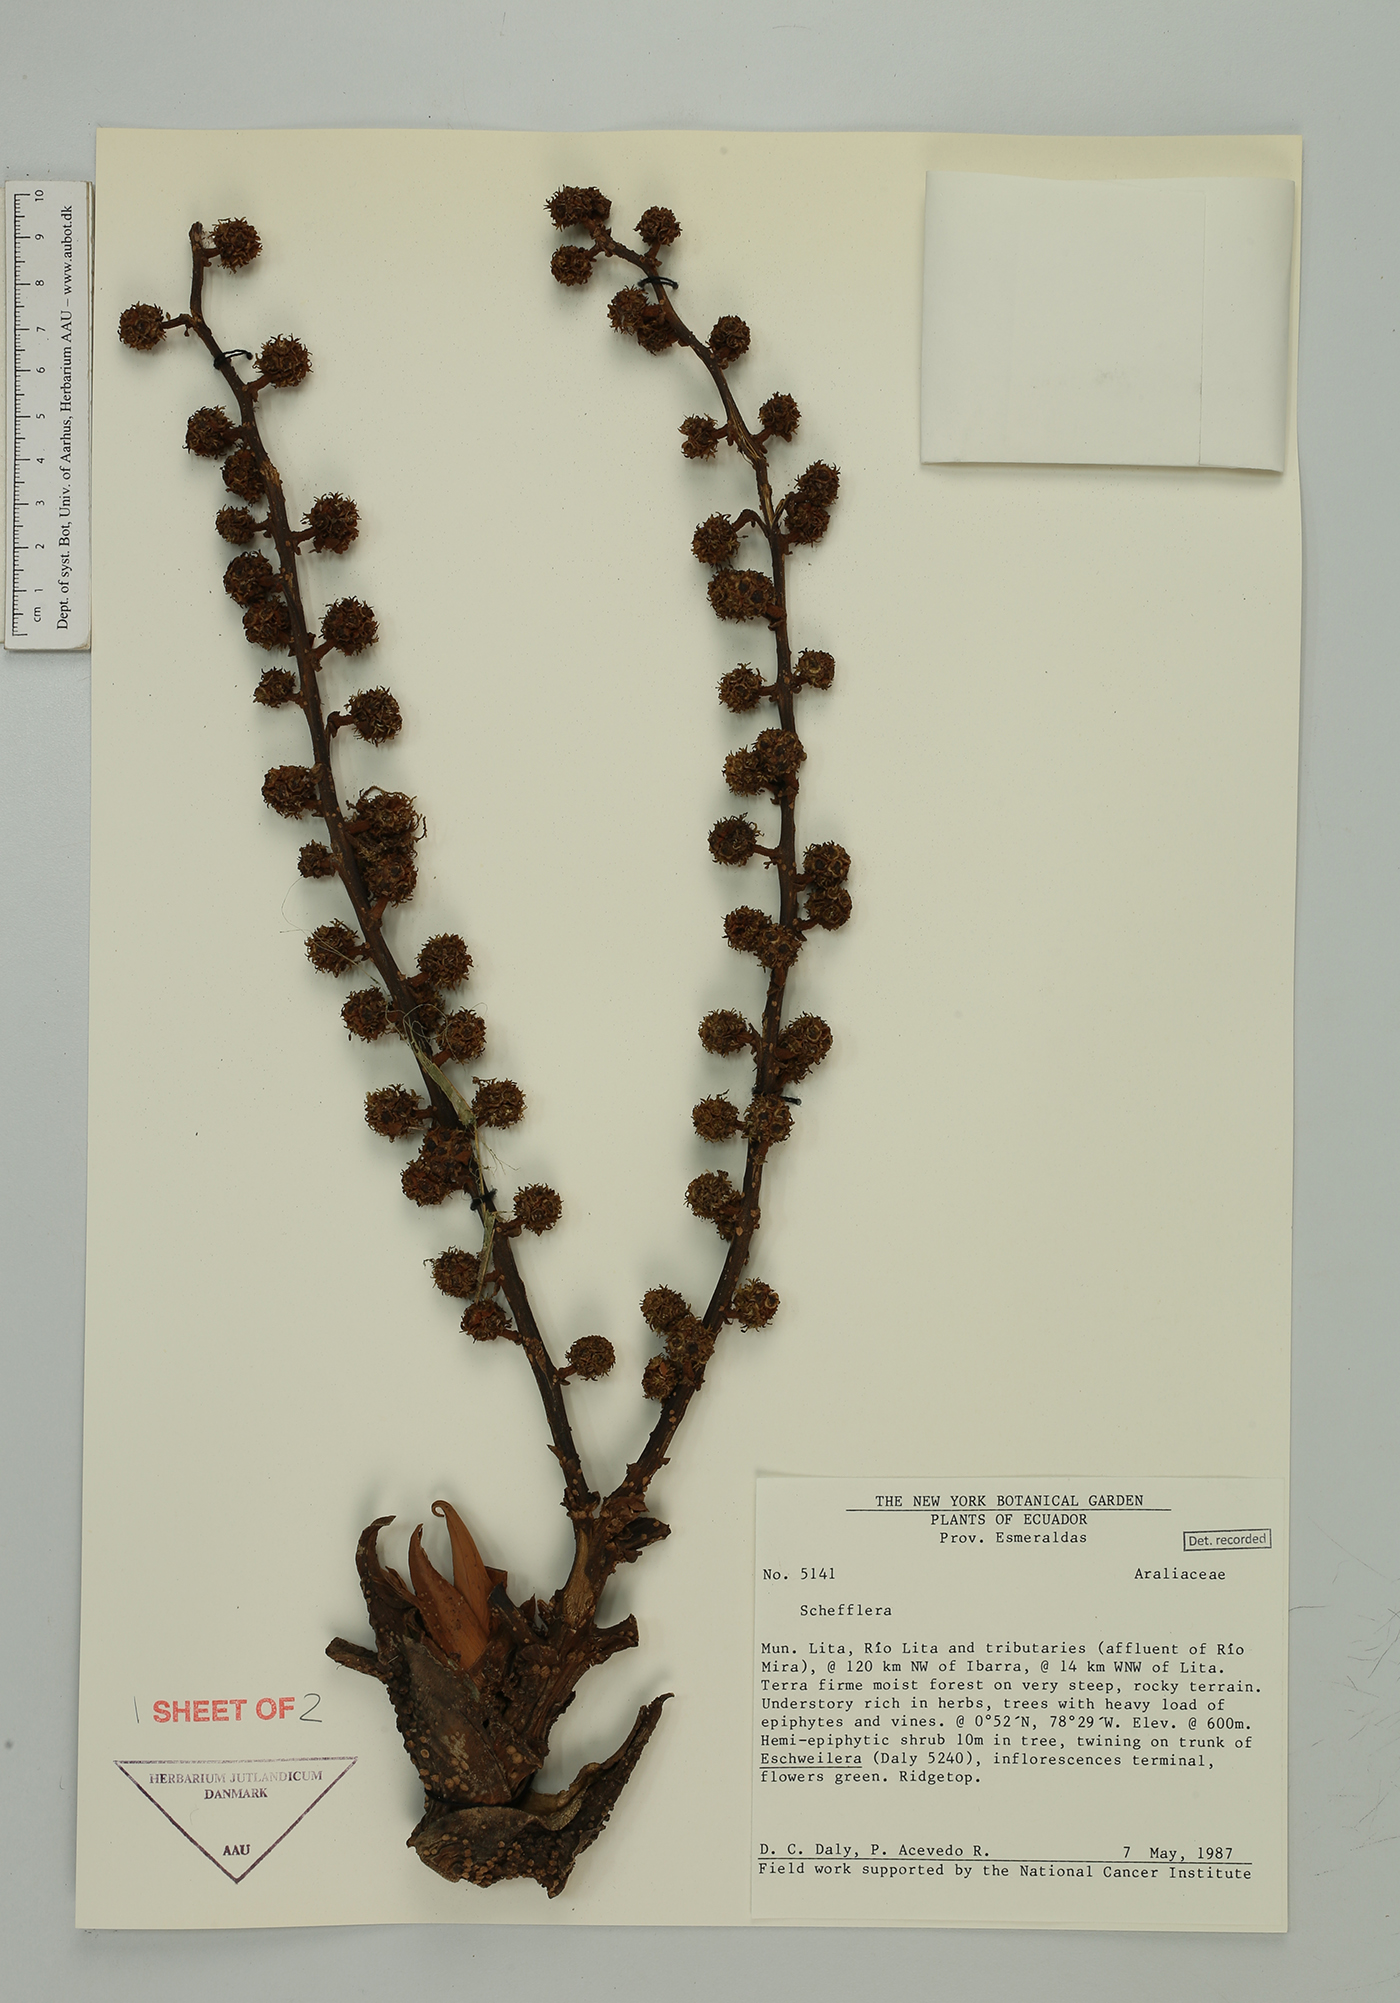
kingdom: Plantae
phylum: Tracheophyta
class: Magnoliopsida
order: Apiales
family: Araliaceae
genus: Sciodaphyllum
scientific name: Sciodaphyllum awa
